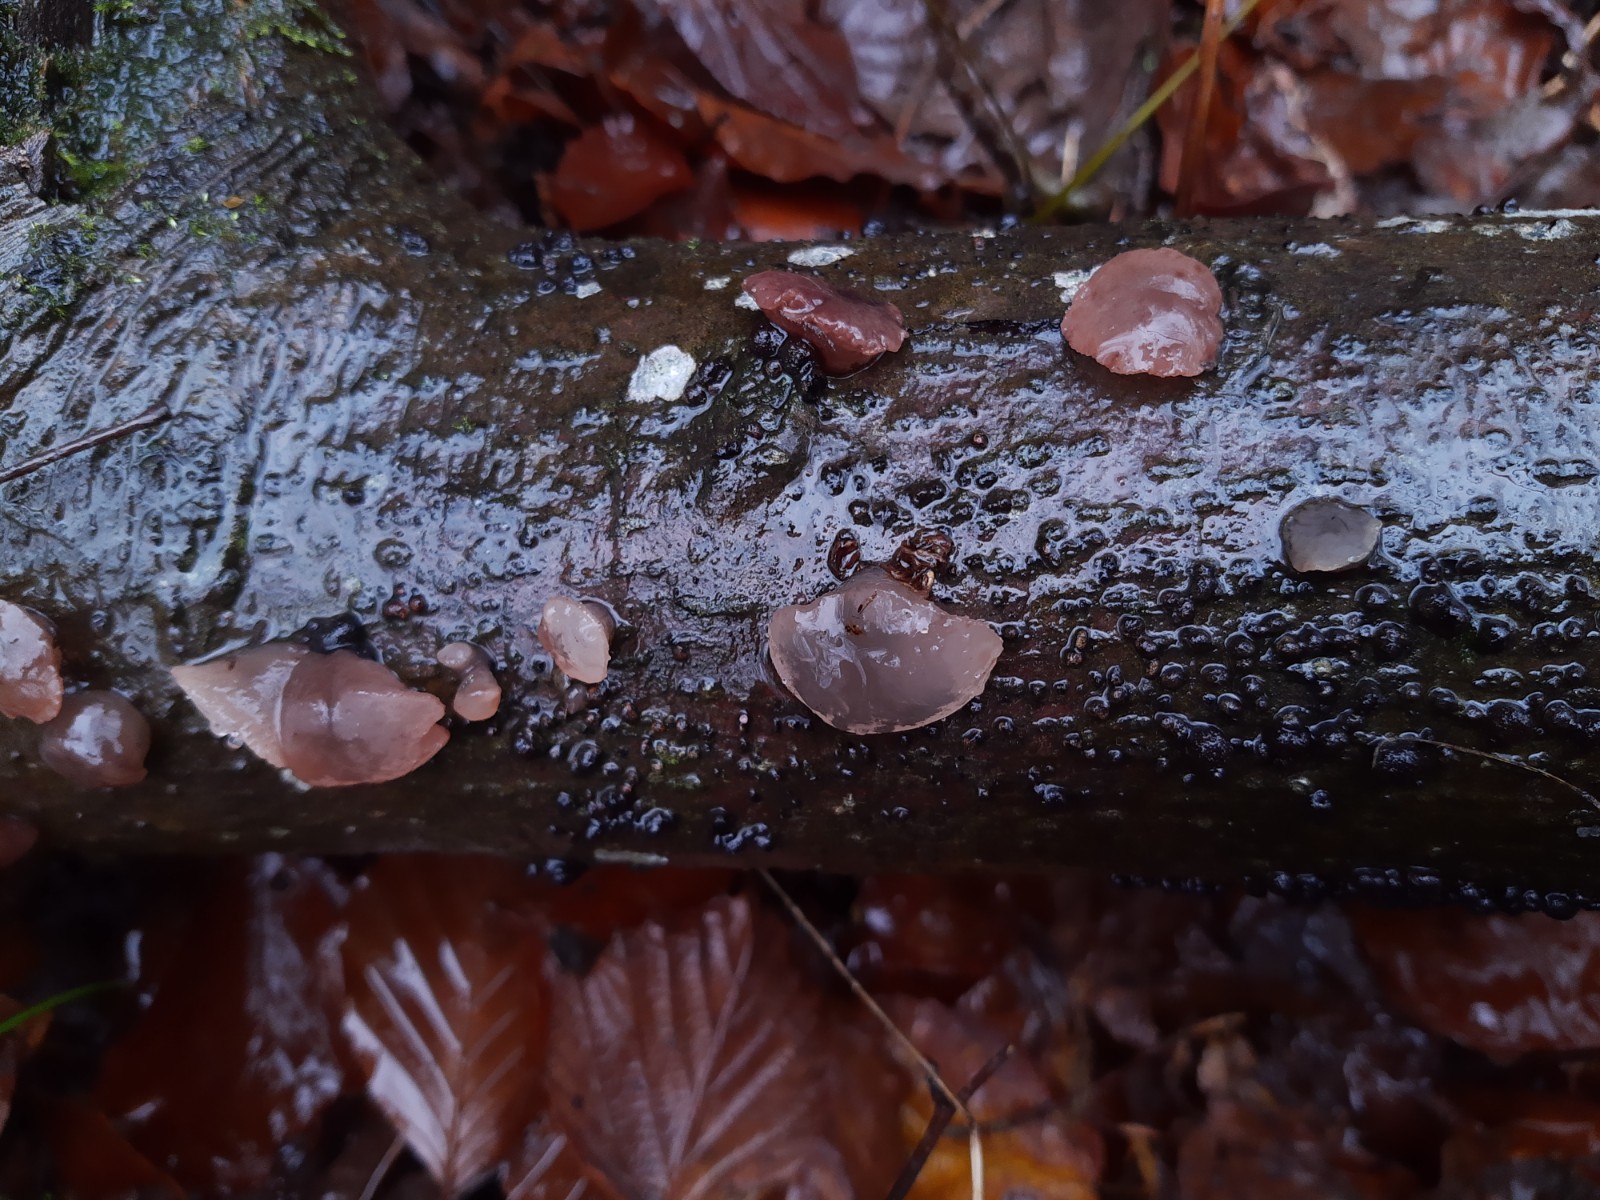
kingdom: Fungi
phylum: Ascomycota
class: Leotiomycetes
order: Helotiales
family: Gelatinodiscaceae
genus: Neobulgaria
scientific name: Neobulgaria pura
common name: bleg bævreskive
